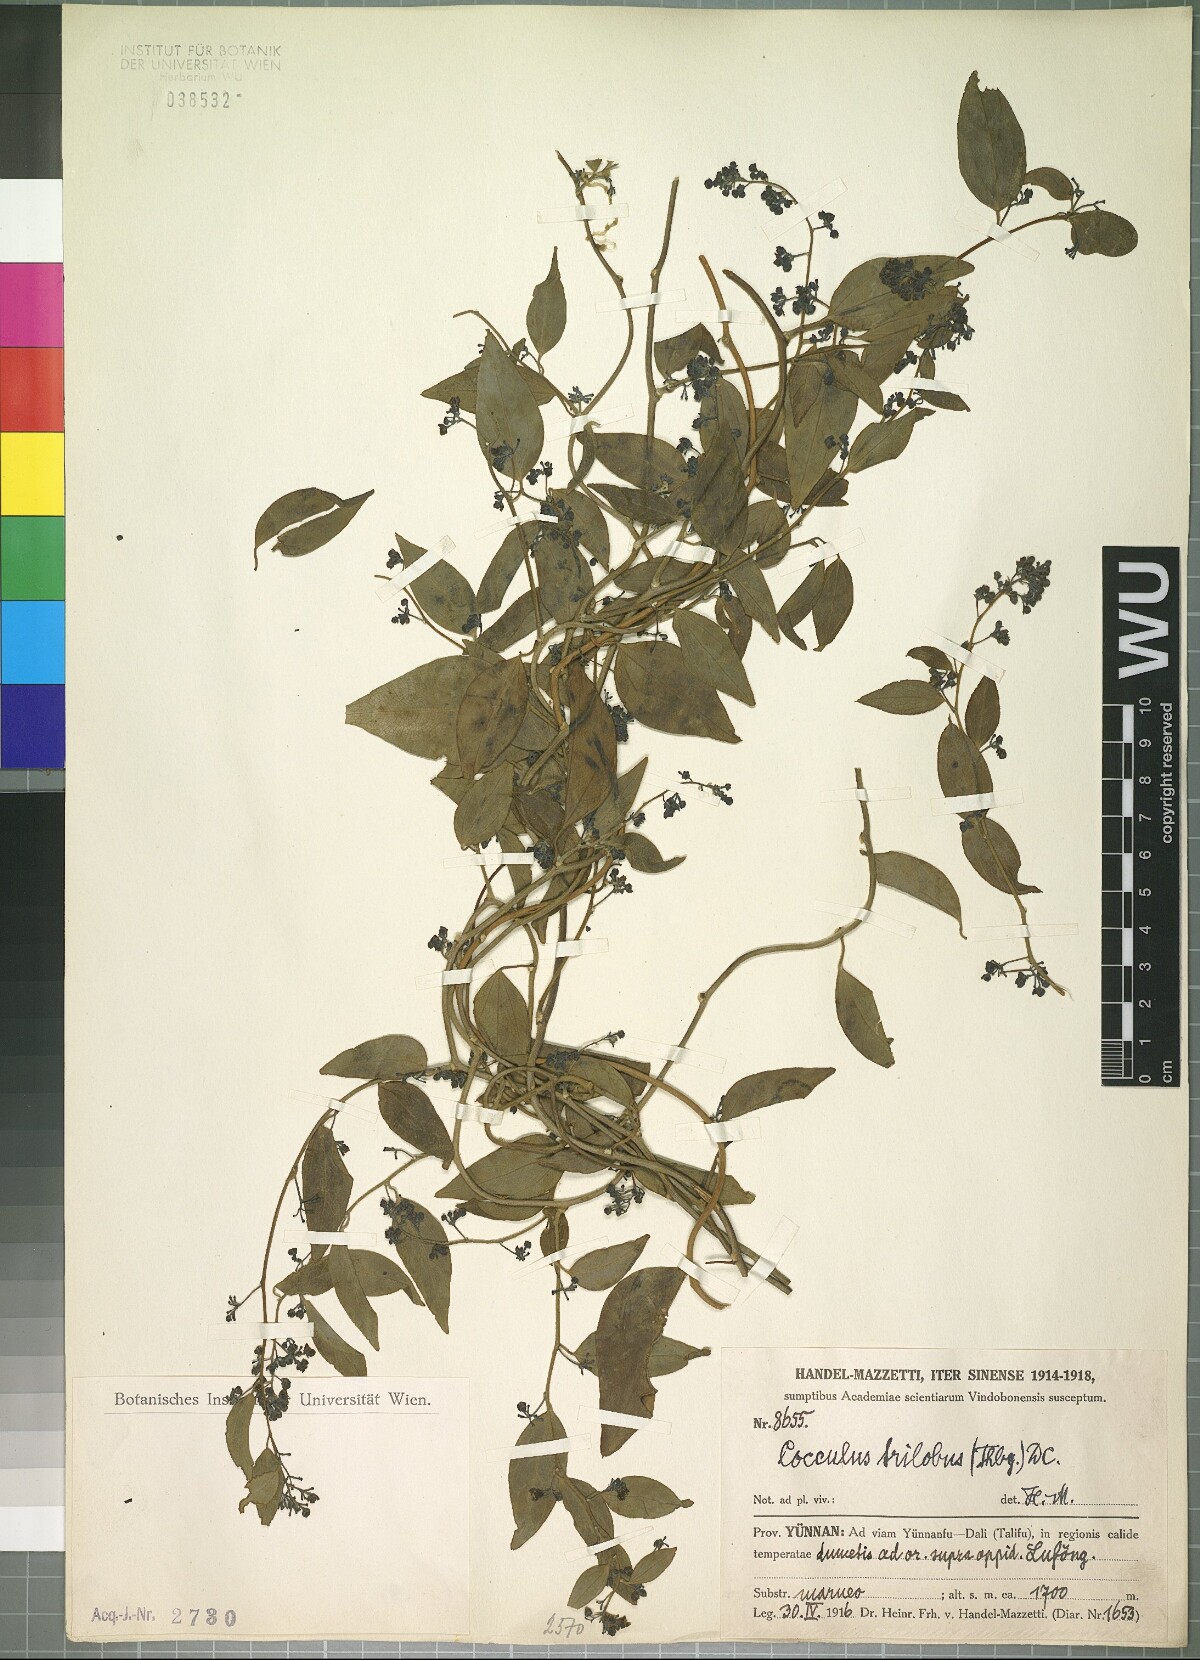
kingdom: Plantae
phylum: Tracheophyta
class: Magnoliopsida
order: Ranunculales
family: Menispermaceae
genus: Cocculus
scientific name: Cocculus orbiculatus
